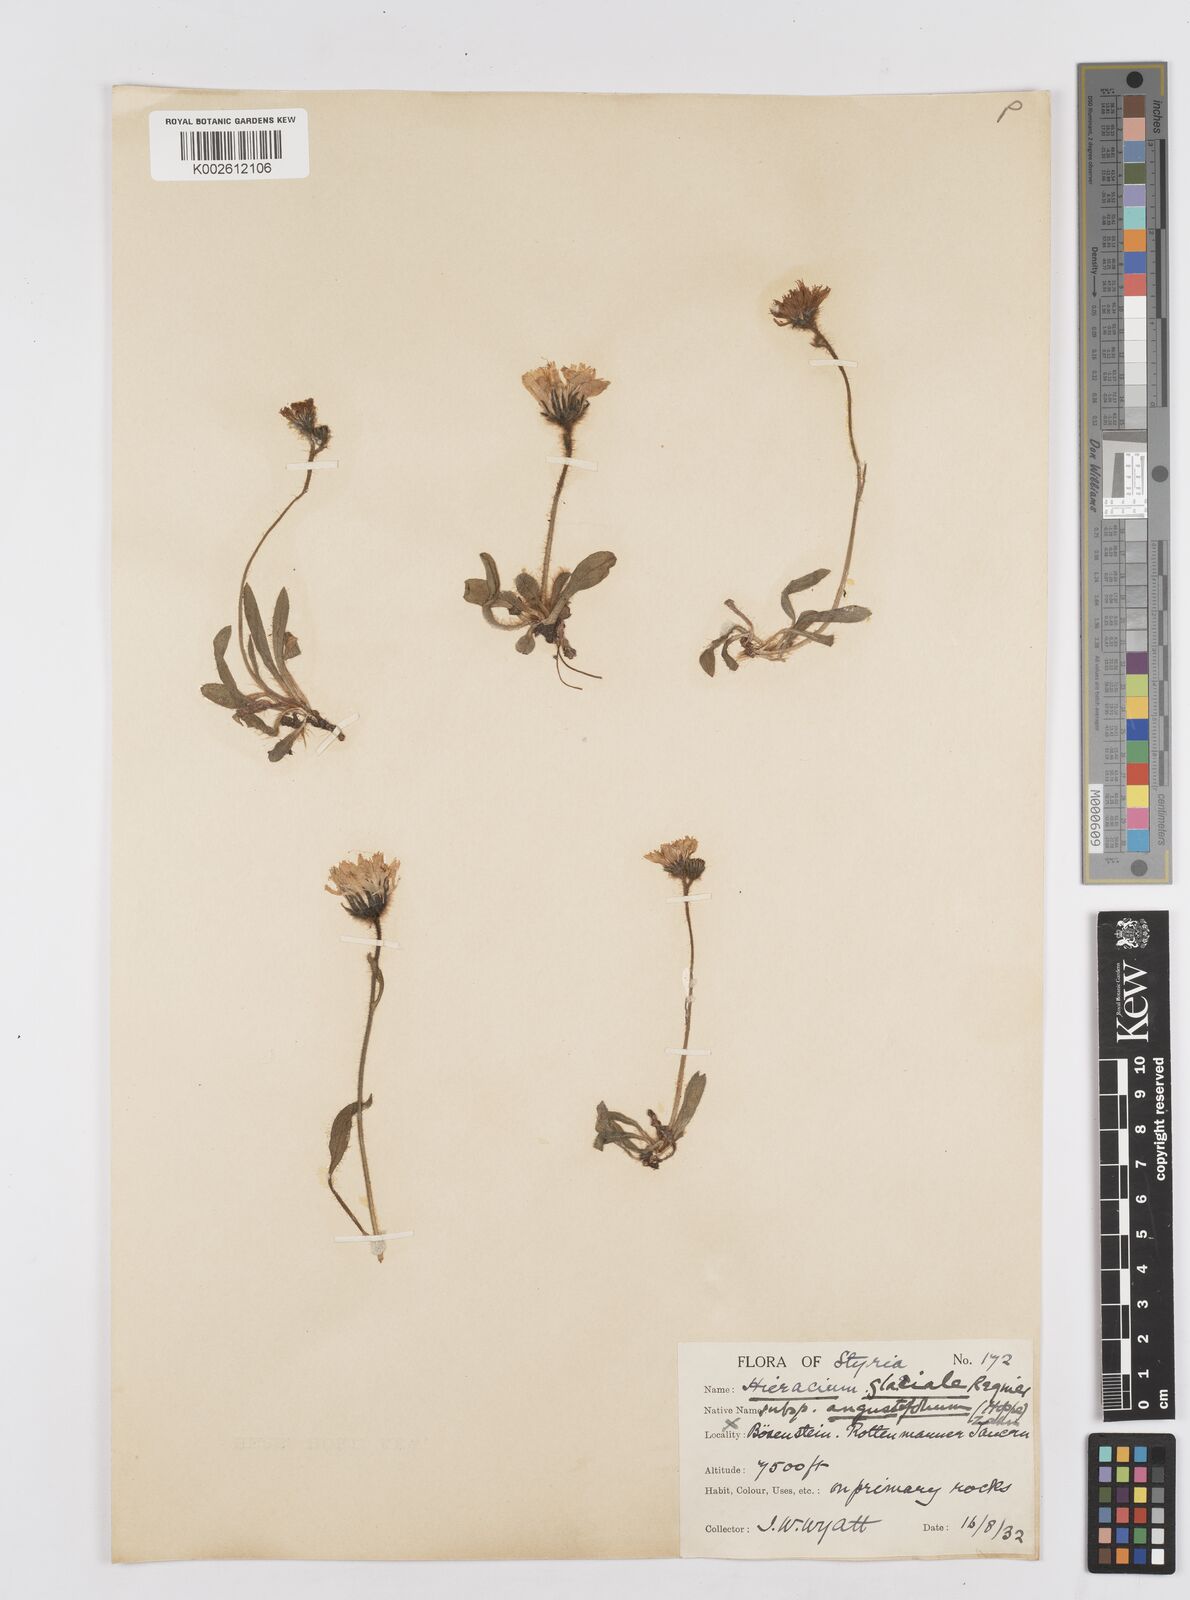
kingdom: Plantae
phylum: Tracheophyta
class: Magnoliopsida
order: Asterales
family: Asteraceae
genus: Hieracium
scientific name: Hieracium
